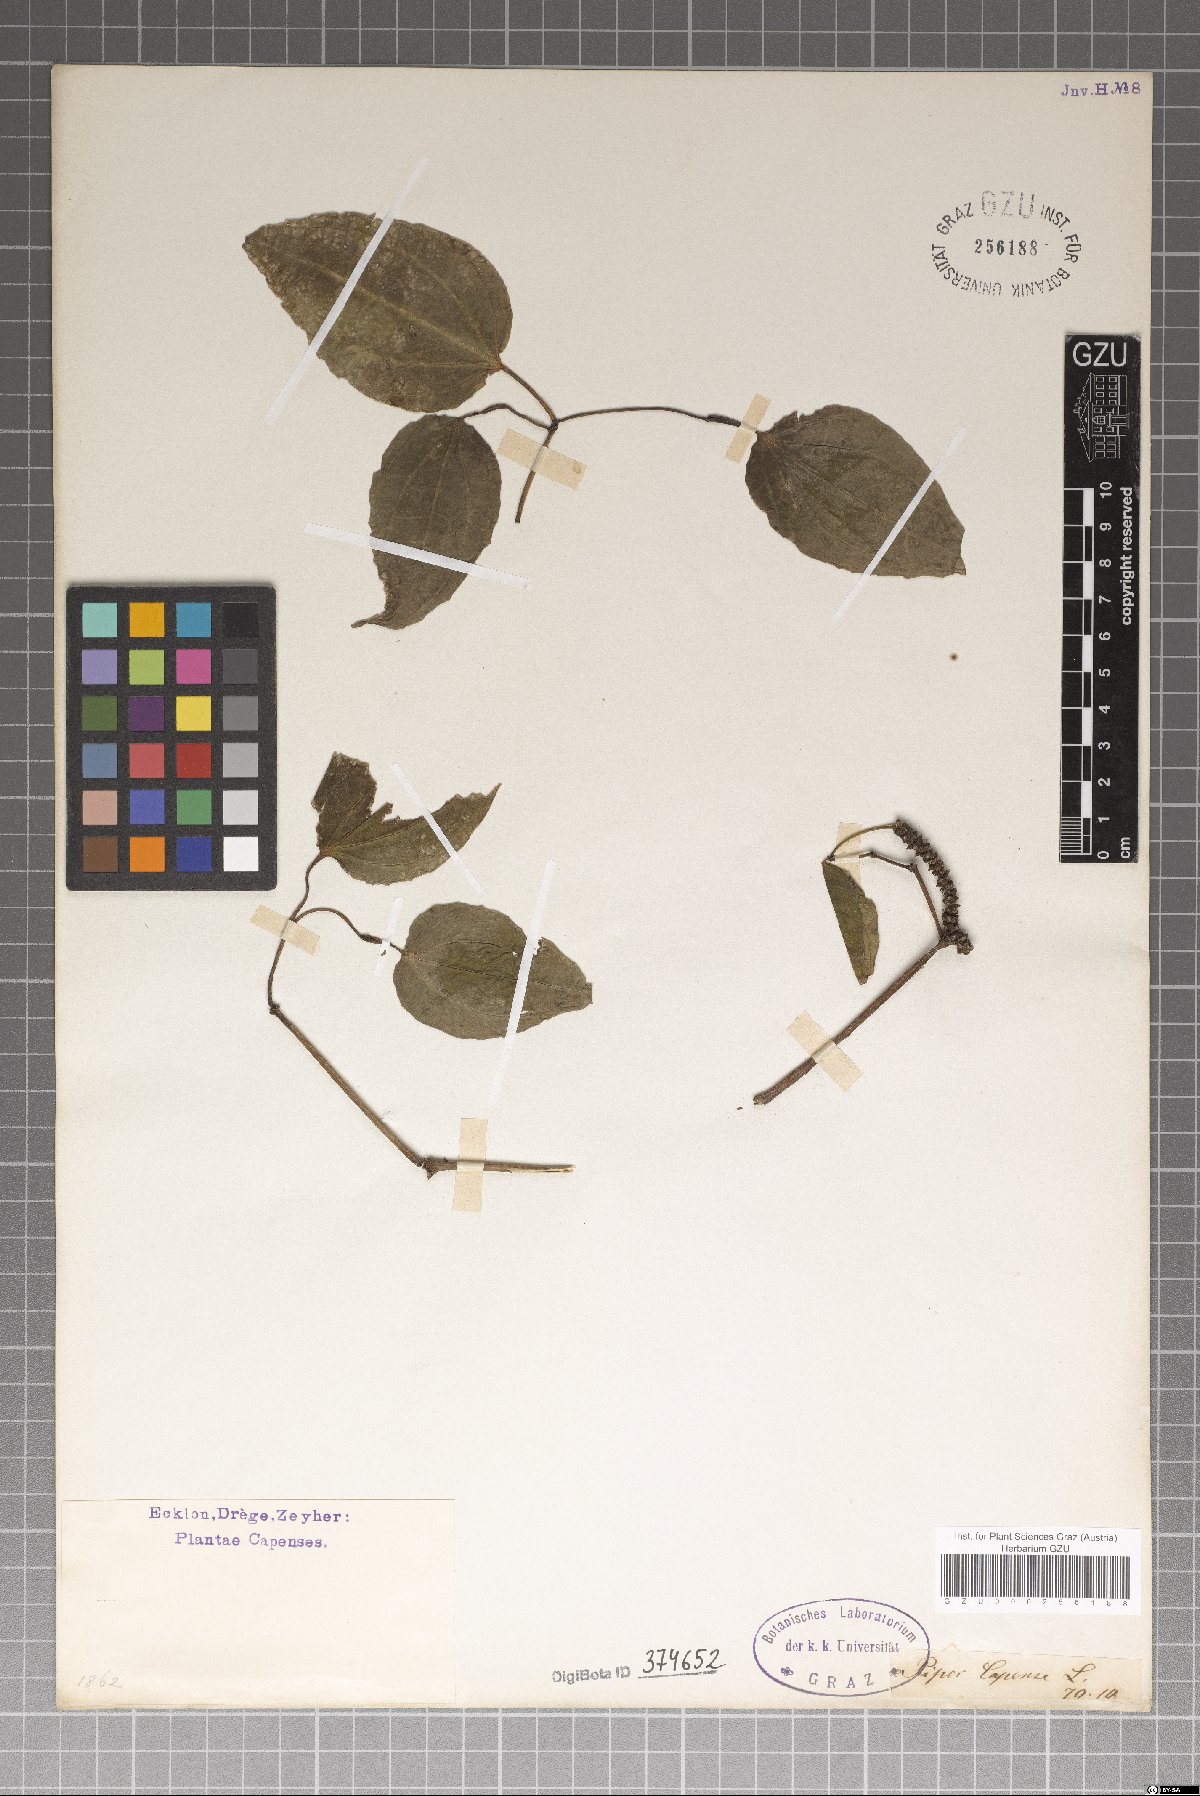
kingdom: Plantae
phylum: Tracheophyta
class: Magnoliopsida
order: Piperales
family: Piperaceae
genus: Piper
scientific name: Piper capense
